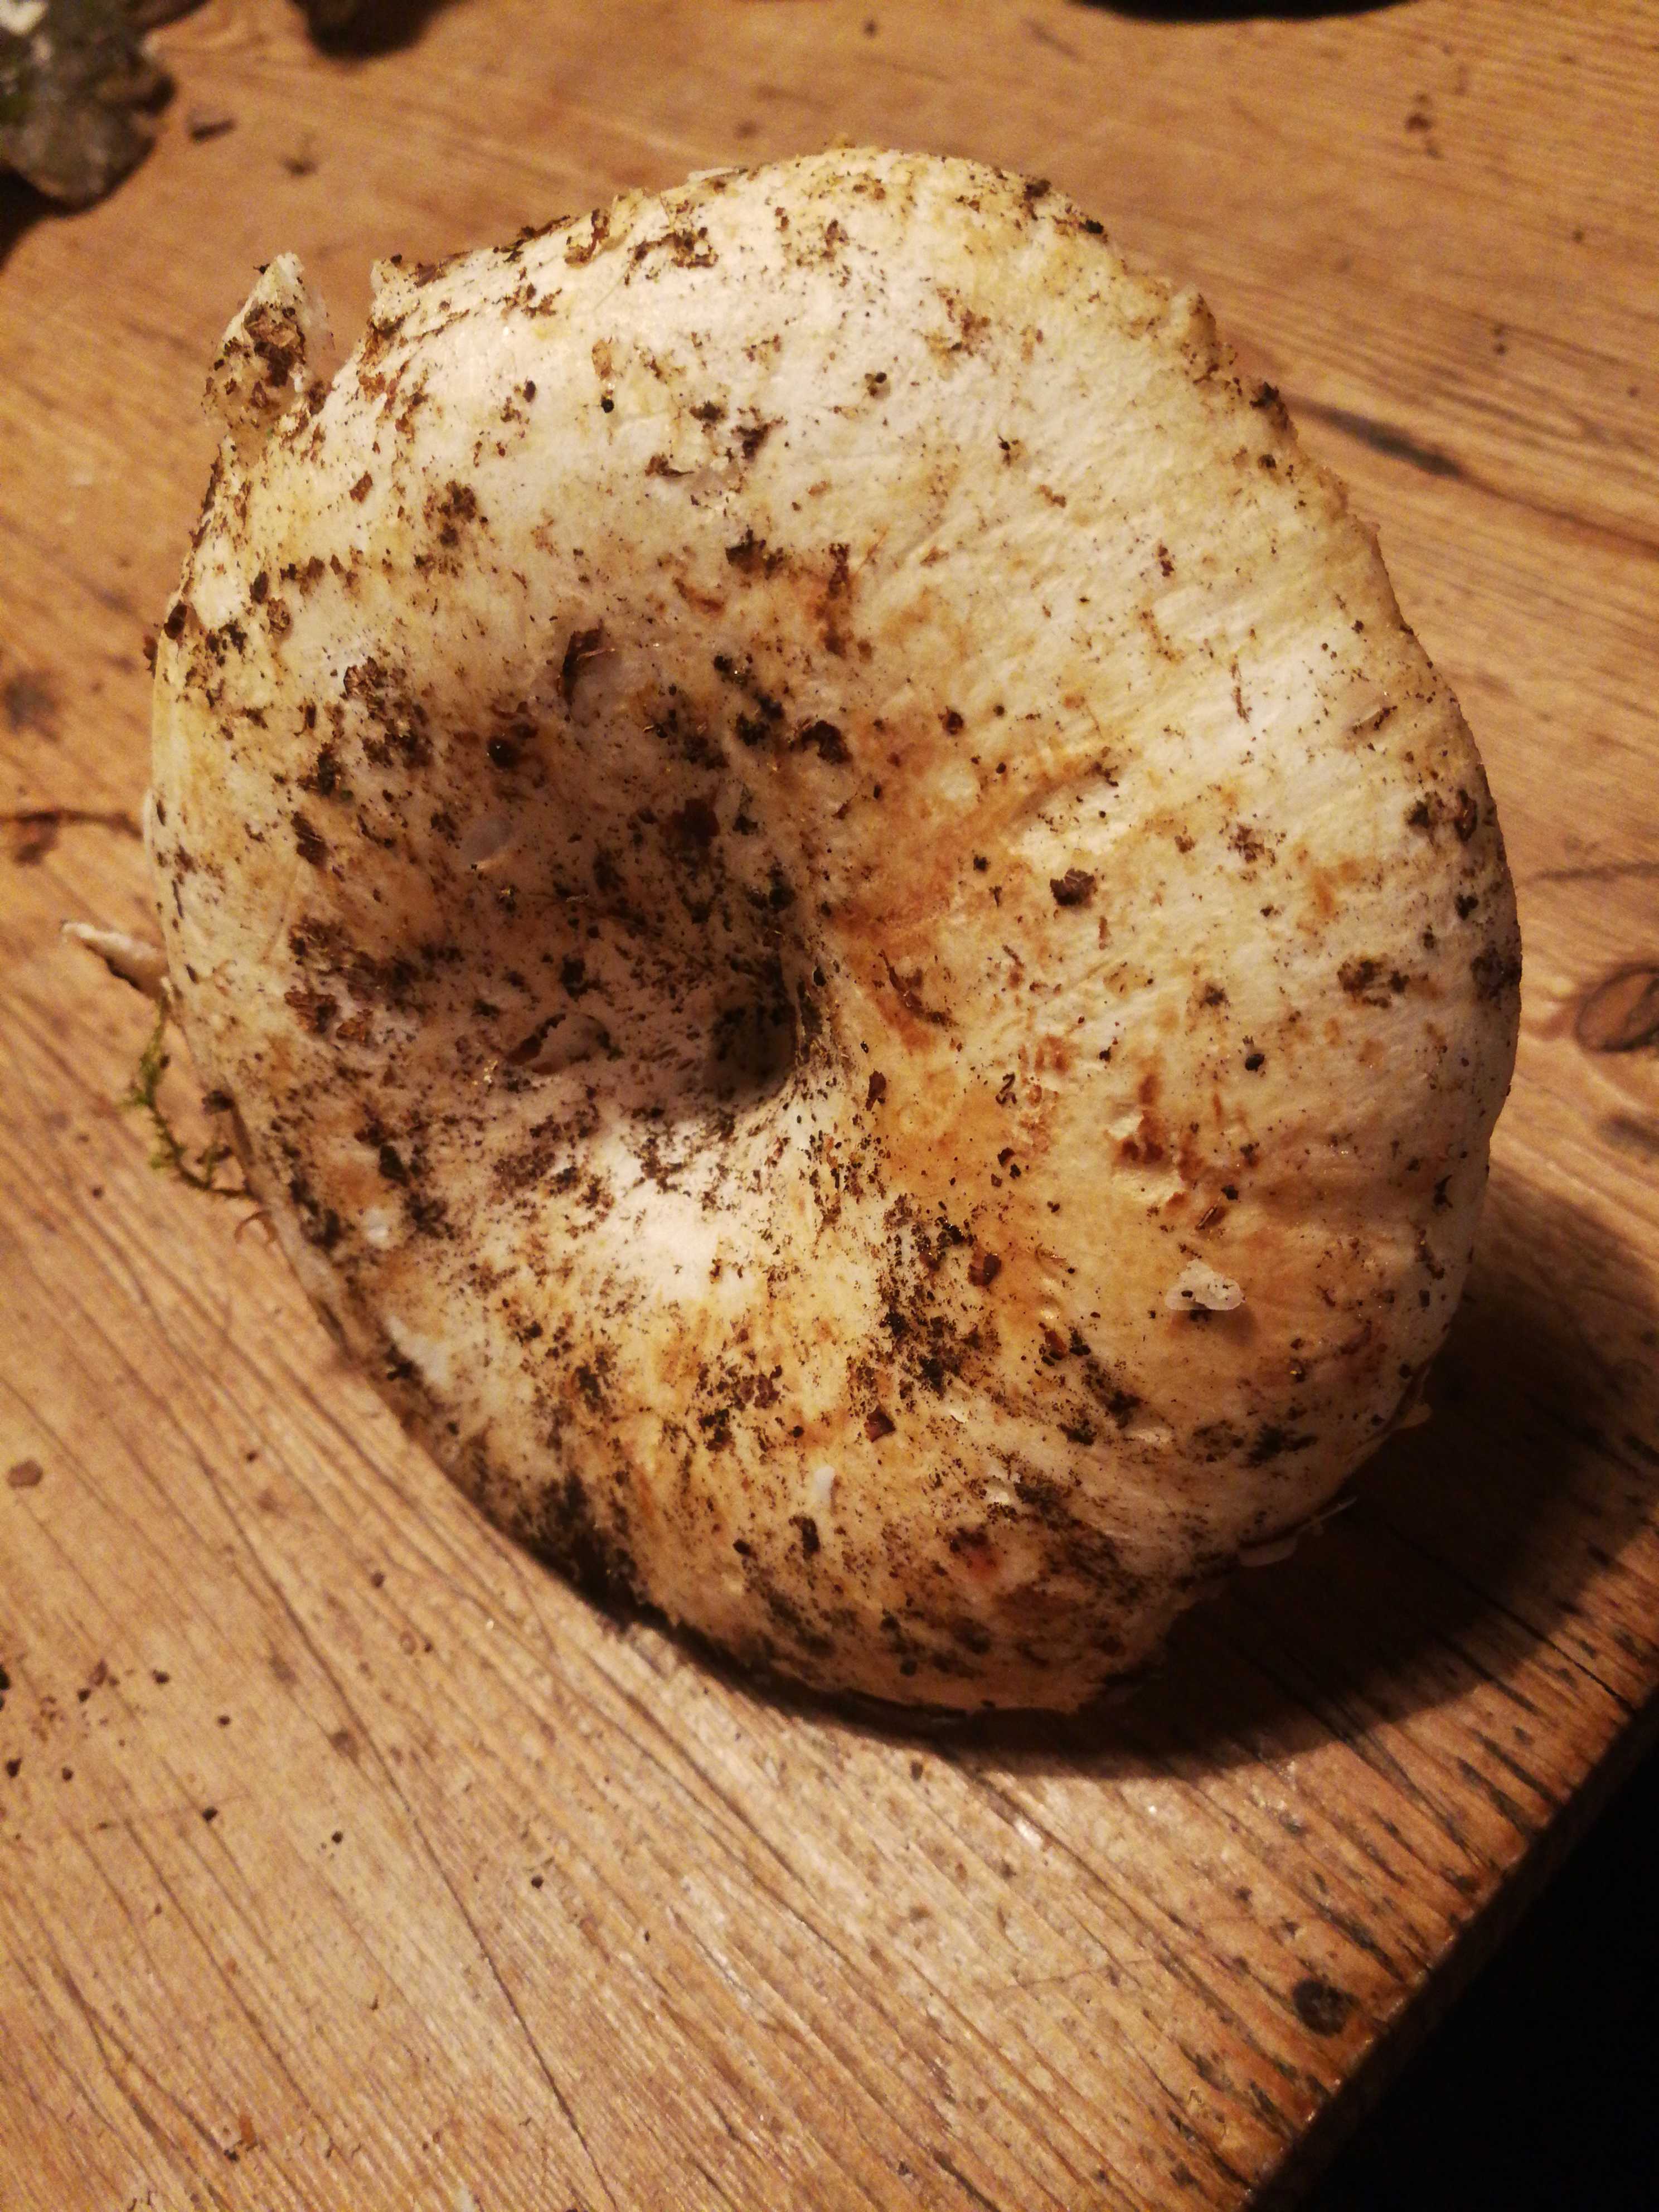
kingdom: Fungi
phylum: Basidiomycota
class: Agaricomycetes
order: Russulales
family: Russulaceae
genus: Russula
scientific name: Russula delica
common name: almindelig tragt-skørhat
